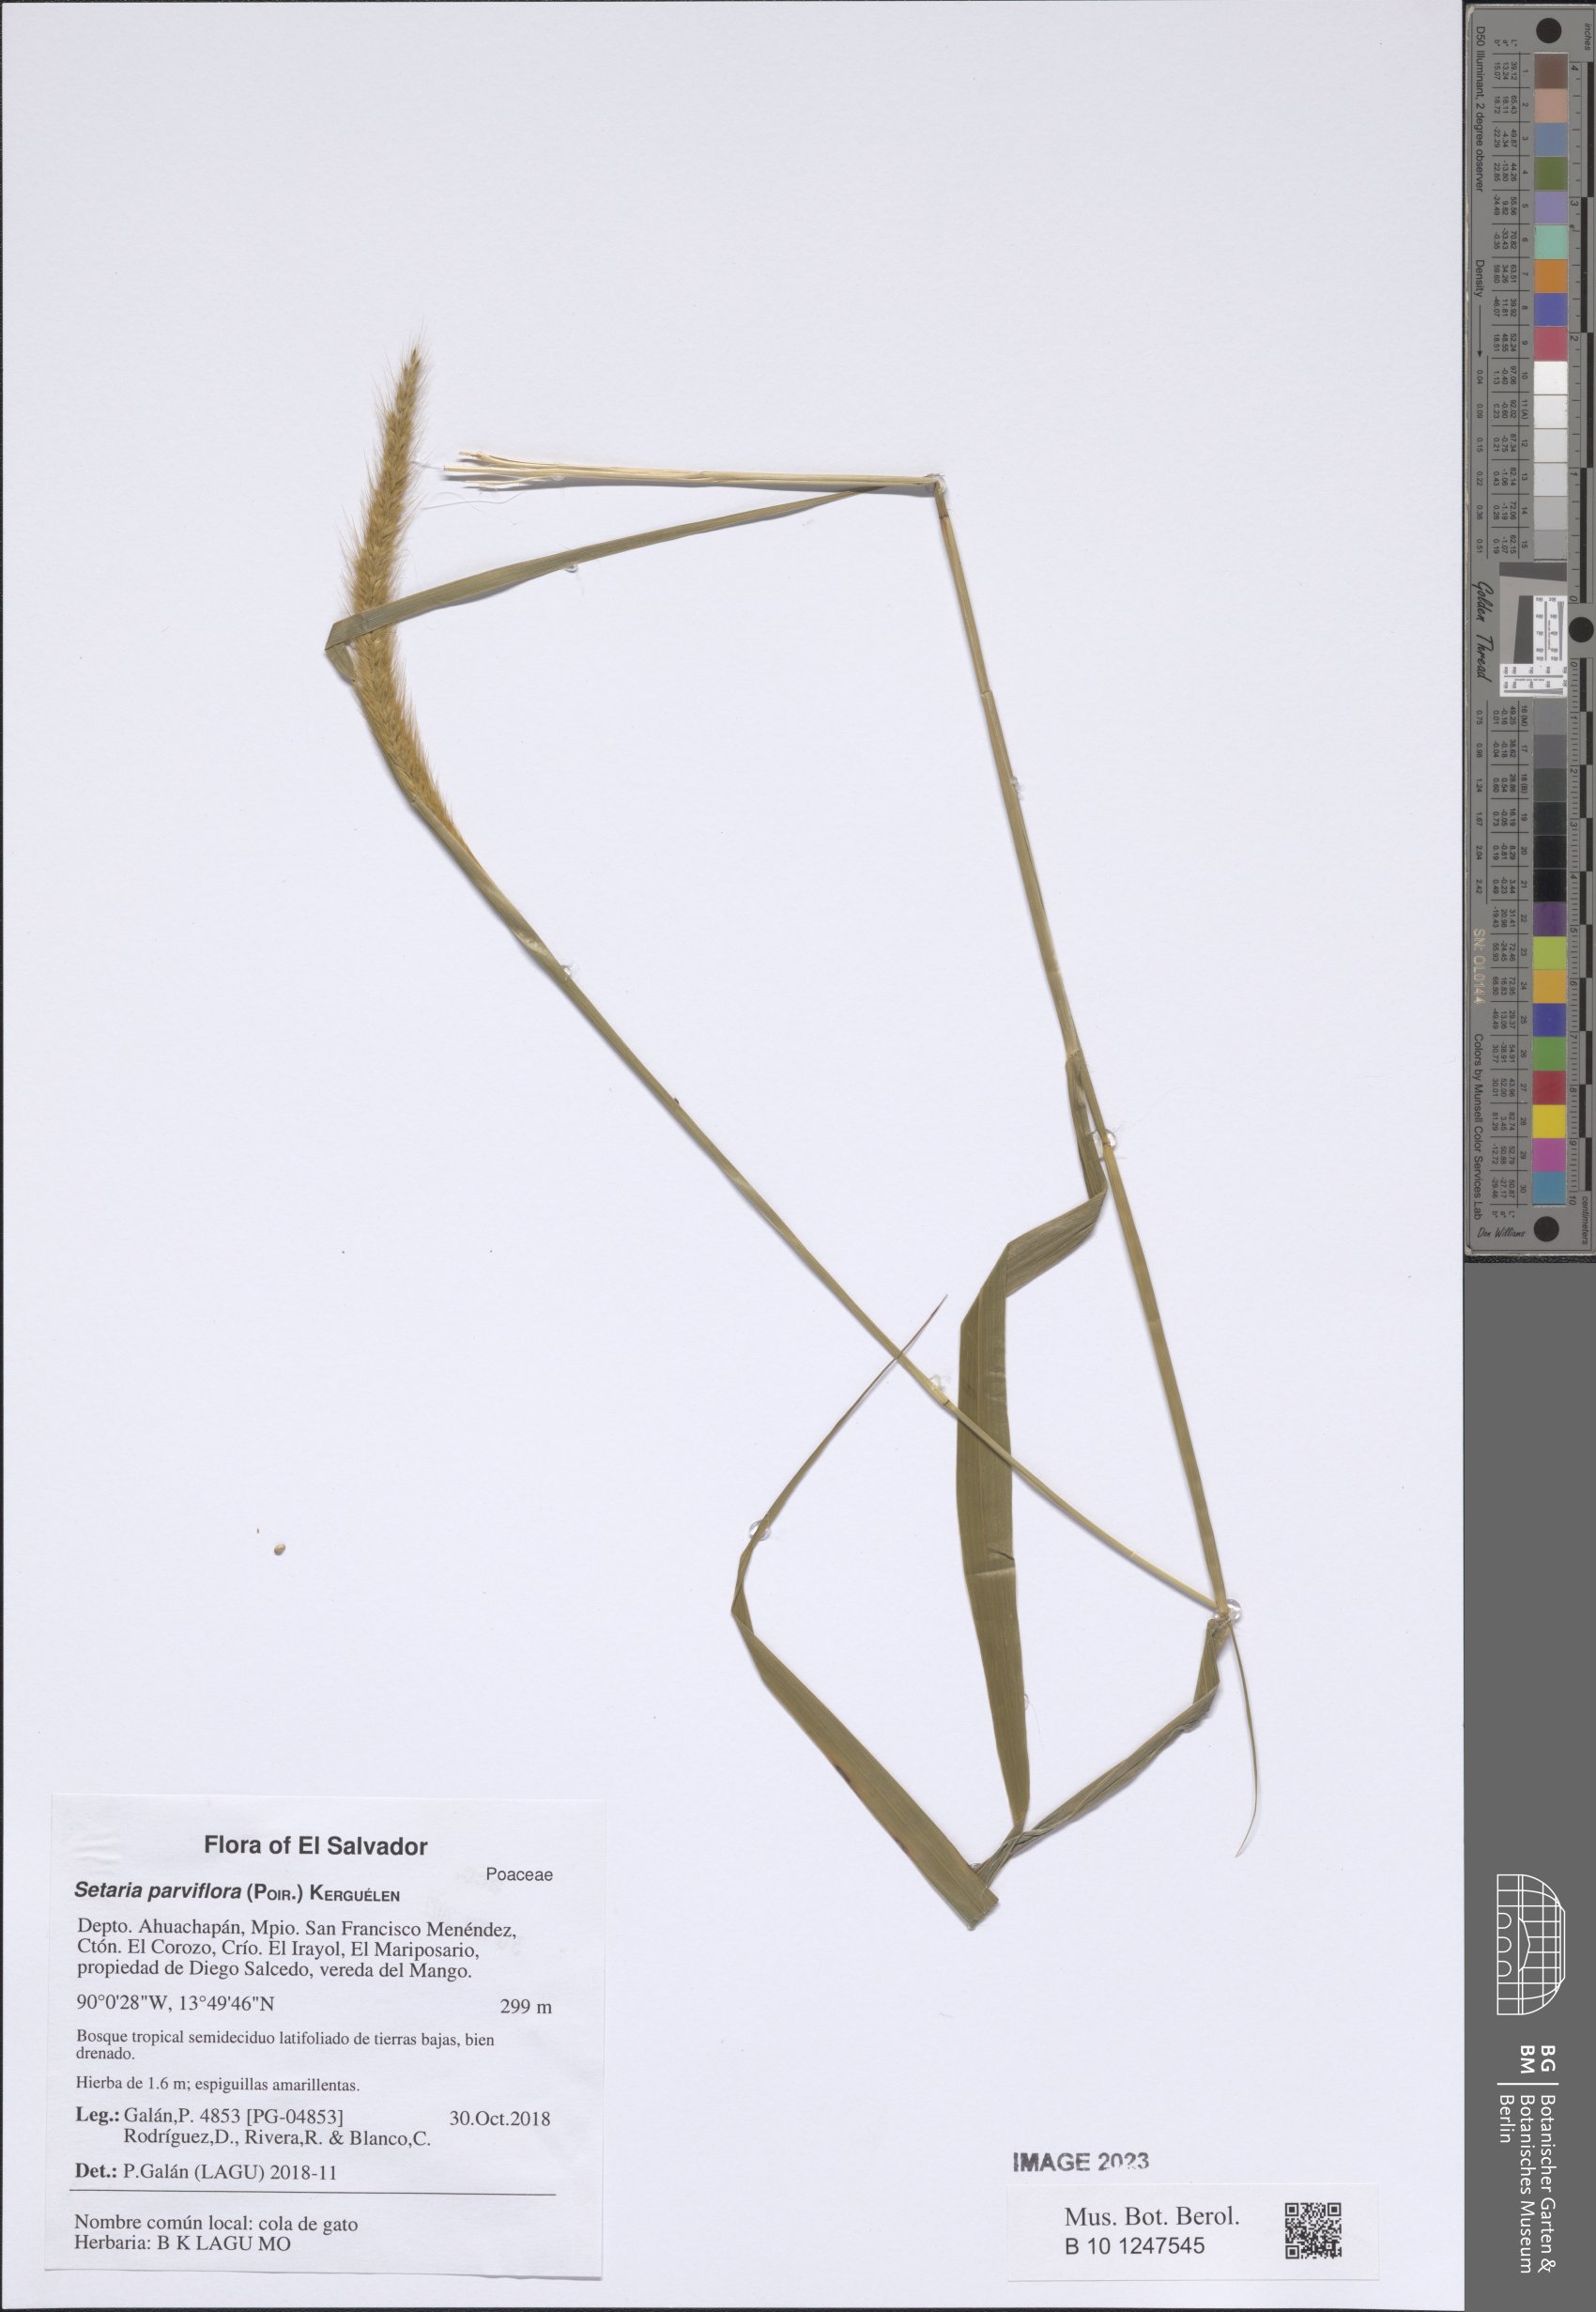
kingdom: Plantae
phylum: Tracheophyta
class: Liliopsida
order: Poales
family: Poaceae
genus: Setaria
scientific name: Setaria parviflora
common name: Knotroot bristle-grass
